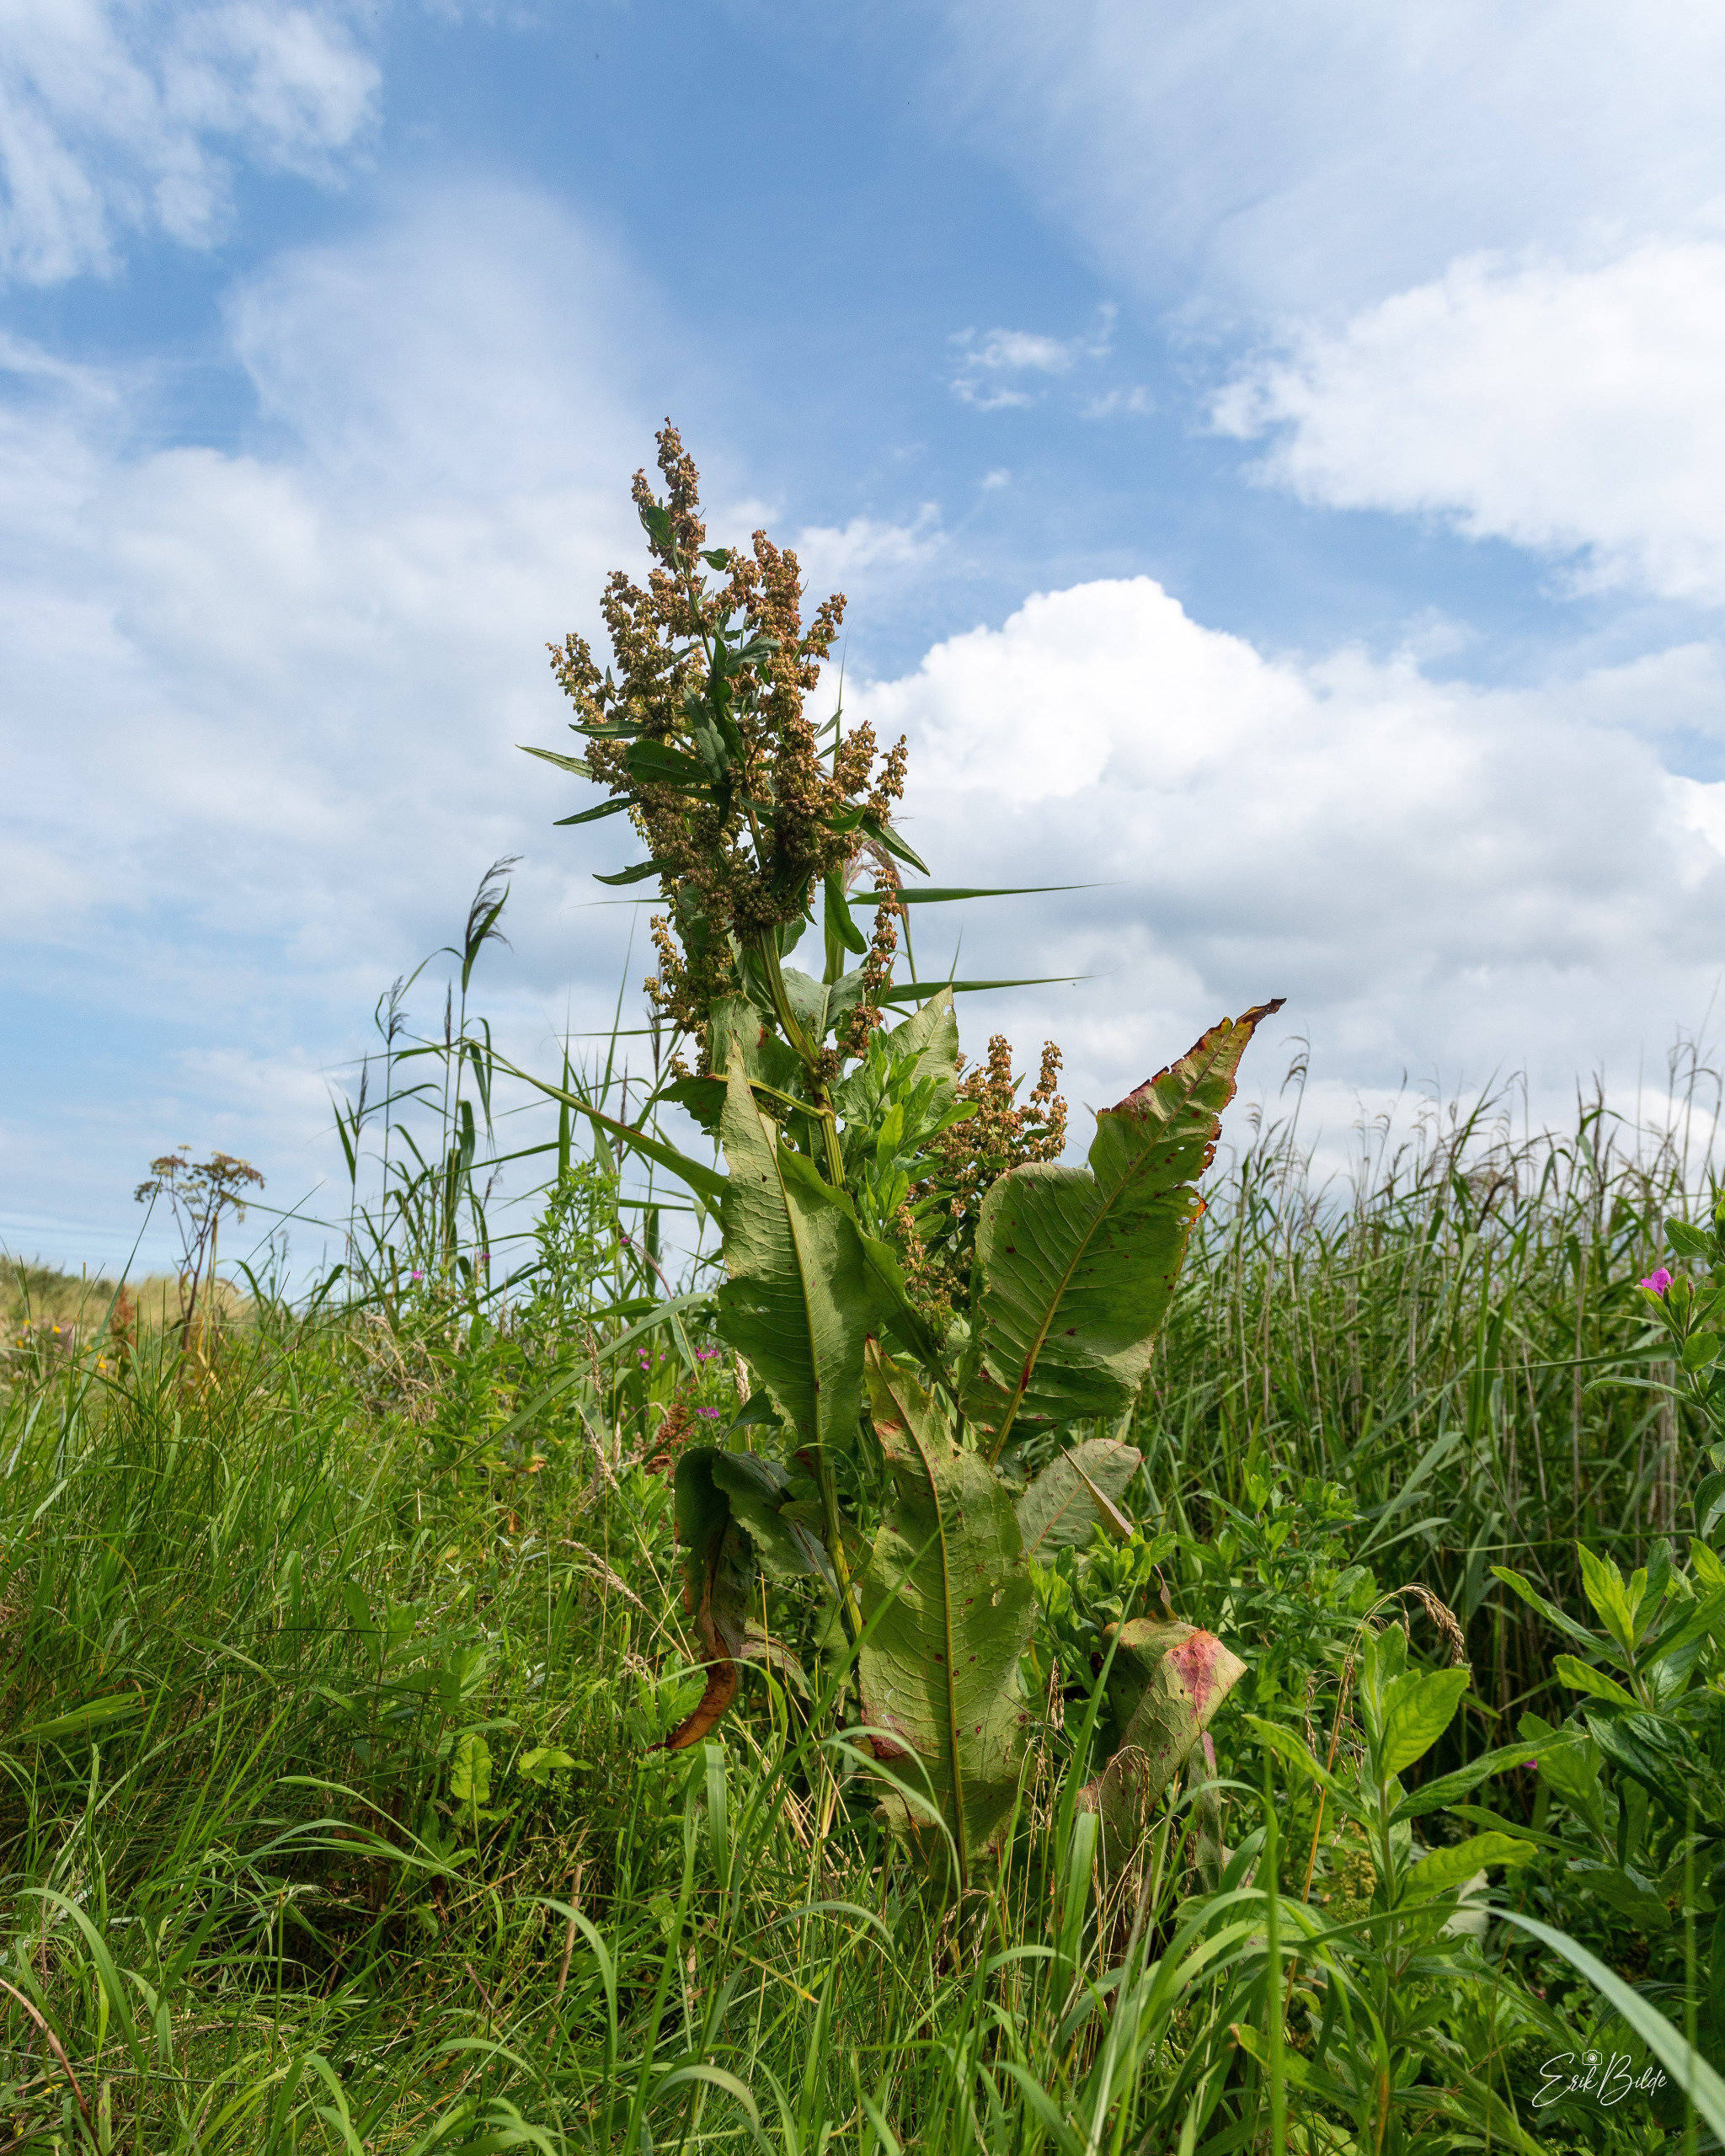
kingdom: Plantae
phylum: Tracheophyta
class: Magnoliopsida
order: Caryophyllales
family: Polygonaceae
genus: Rumex
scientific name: Rumex hydrolapathum
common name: Vand-skræppe
